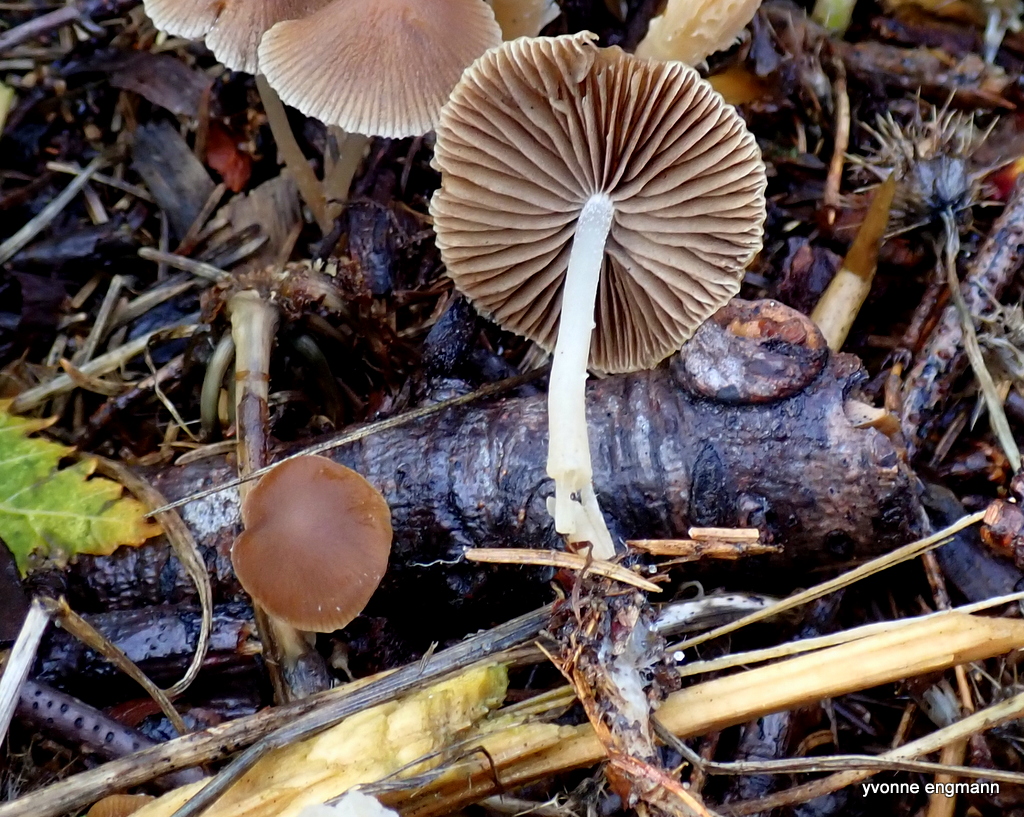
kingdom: Fungi
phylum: Basidiomycota
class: Agaricomycetes
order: Agaricales
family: Psathyrellaceae
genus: Psathyrella
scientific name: Psathyrella
